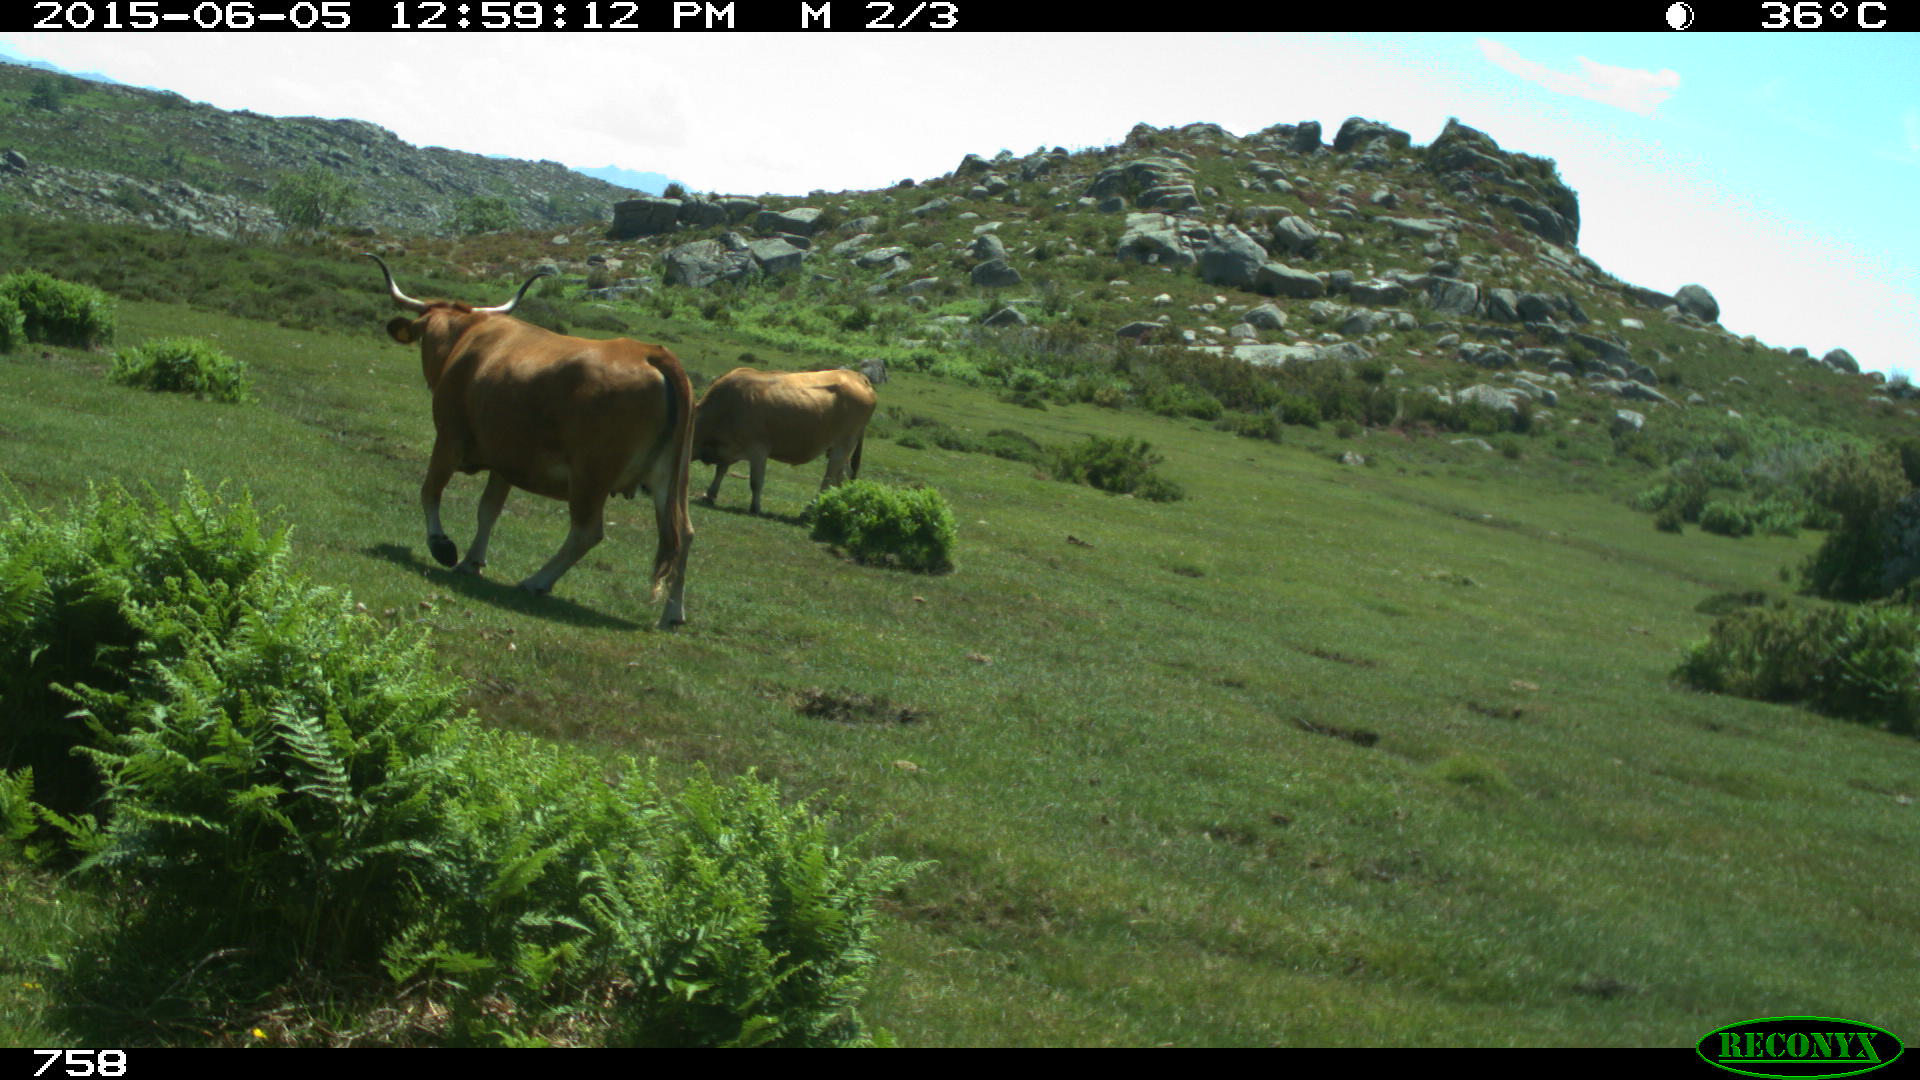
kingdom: Animalia
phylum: Chordata
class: Mammalia
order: Artiodactyla
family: Bovidae
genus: Bos
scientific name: Bos taurus
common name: Domesticated cattle
